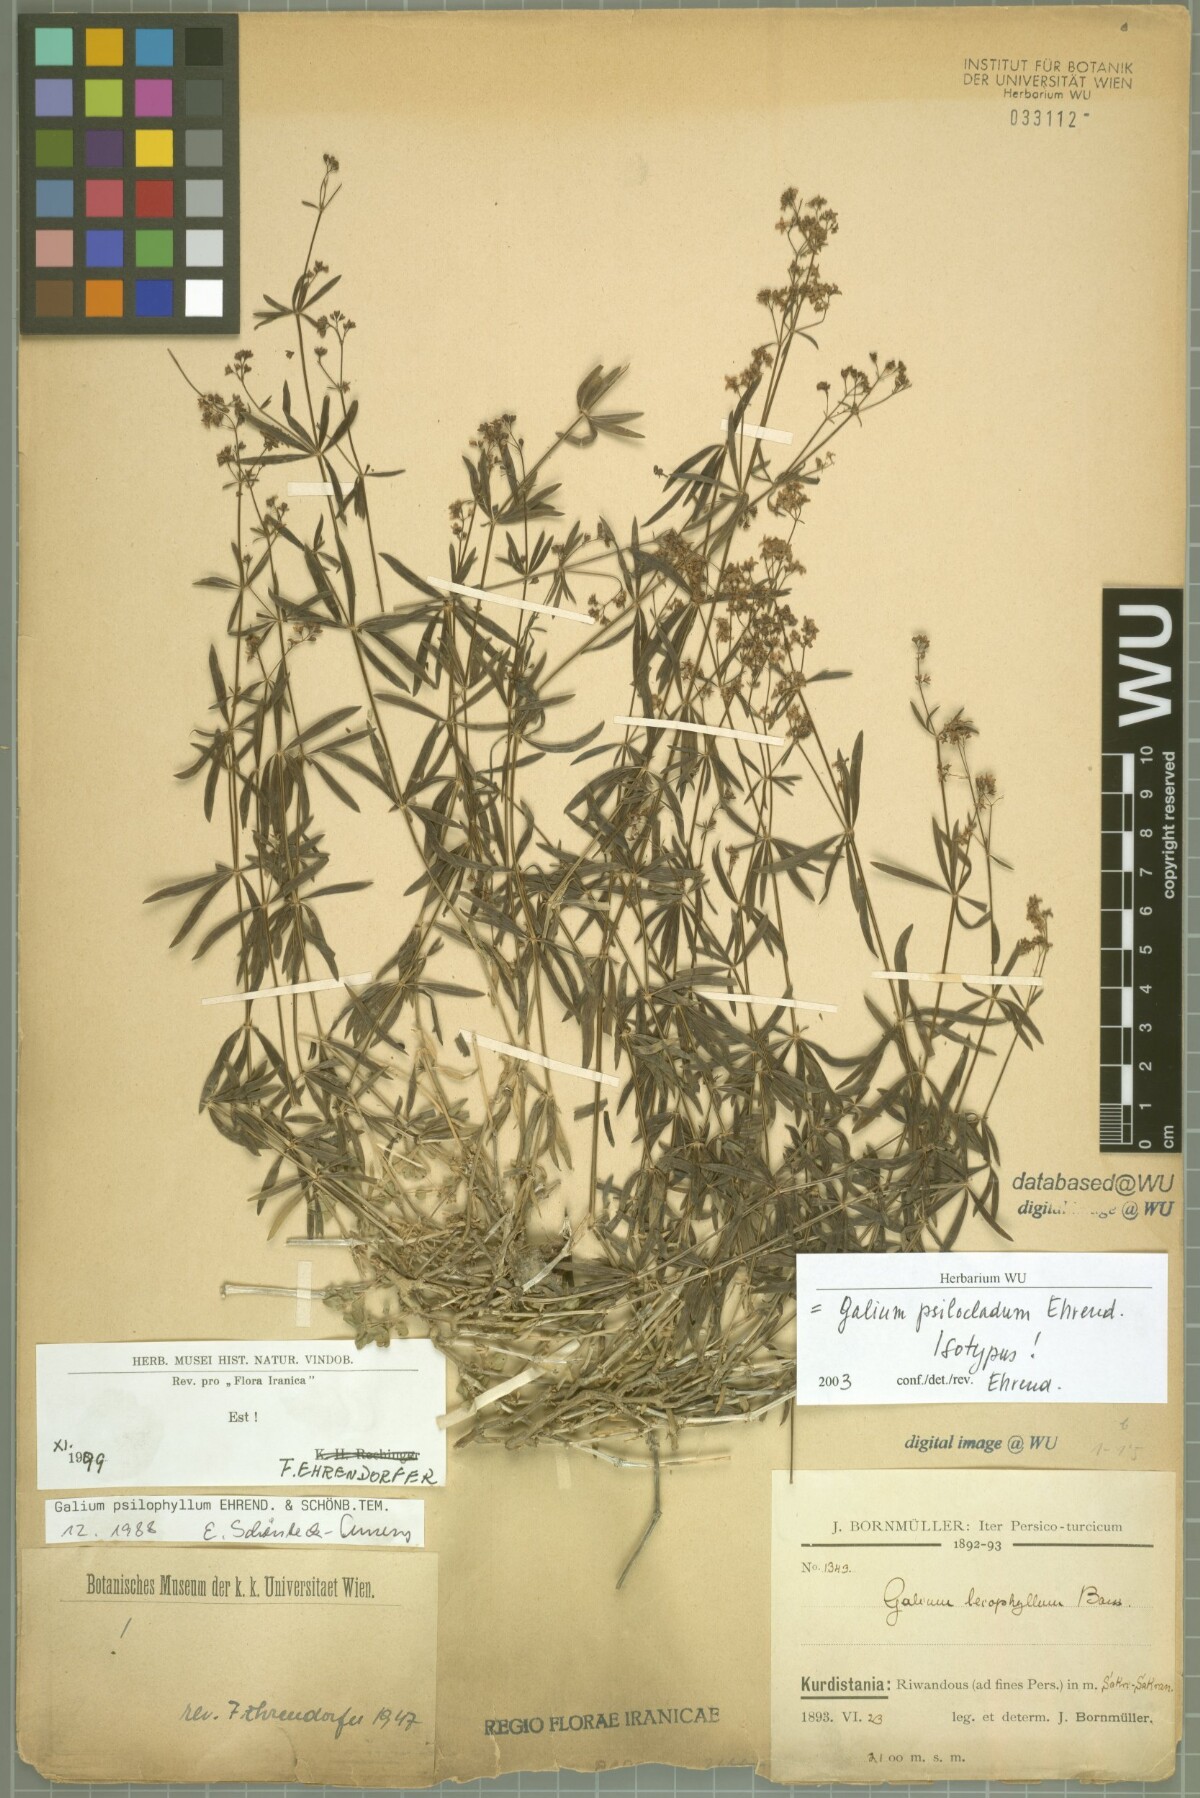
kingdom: Plantae
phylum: Tracheophyta
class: Magnoliopsida
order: Gentianales
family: Rubiaceae
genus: Galium
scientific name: Galium psilocladum
